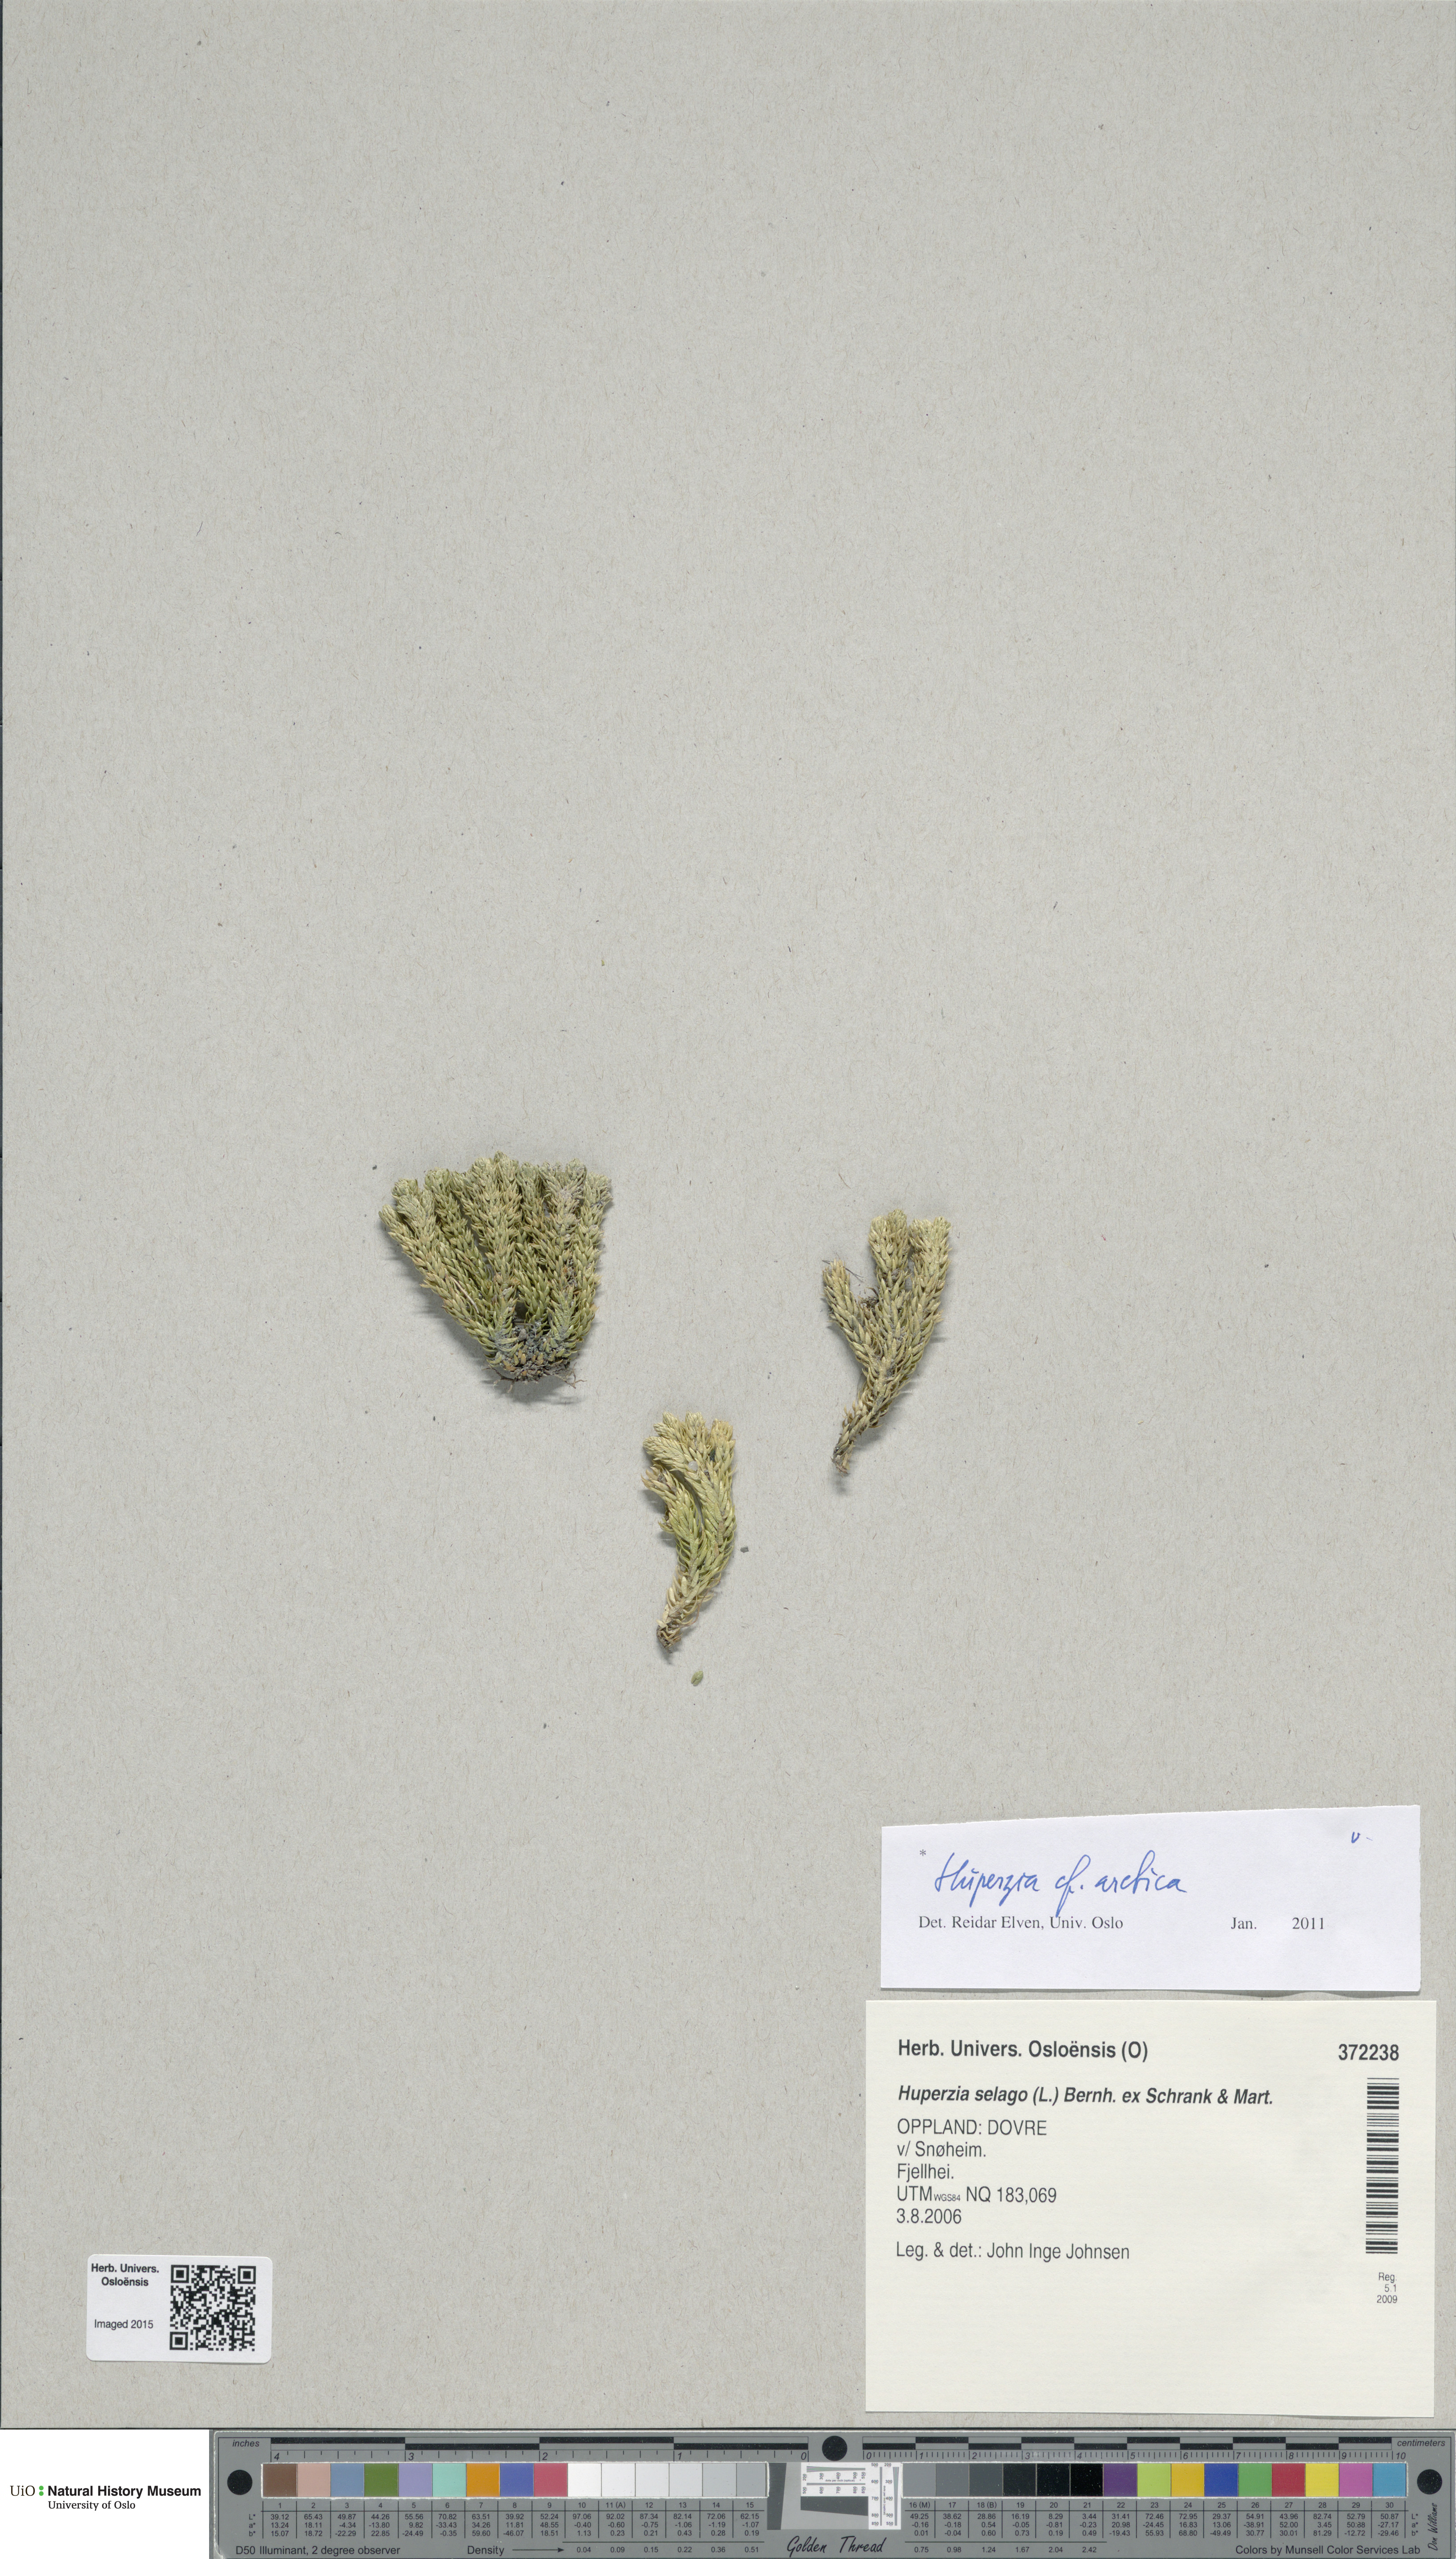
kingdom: Plantae
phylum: Tracheophyta
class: Lycopodiopsida
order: Lycopodiales
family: Lycopodiaceae
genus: Huperzia
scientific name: Huperzia selago
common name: Northern firmoss
